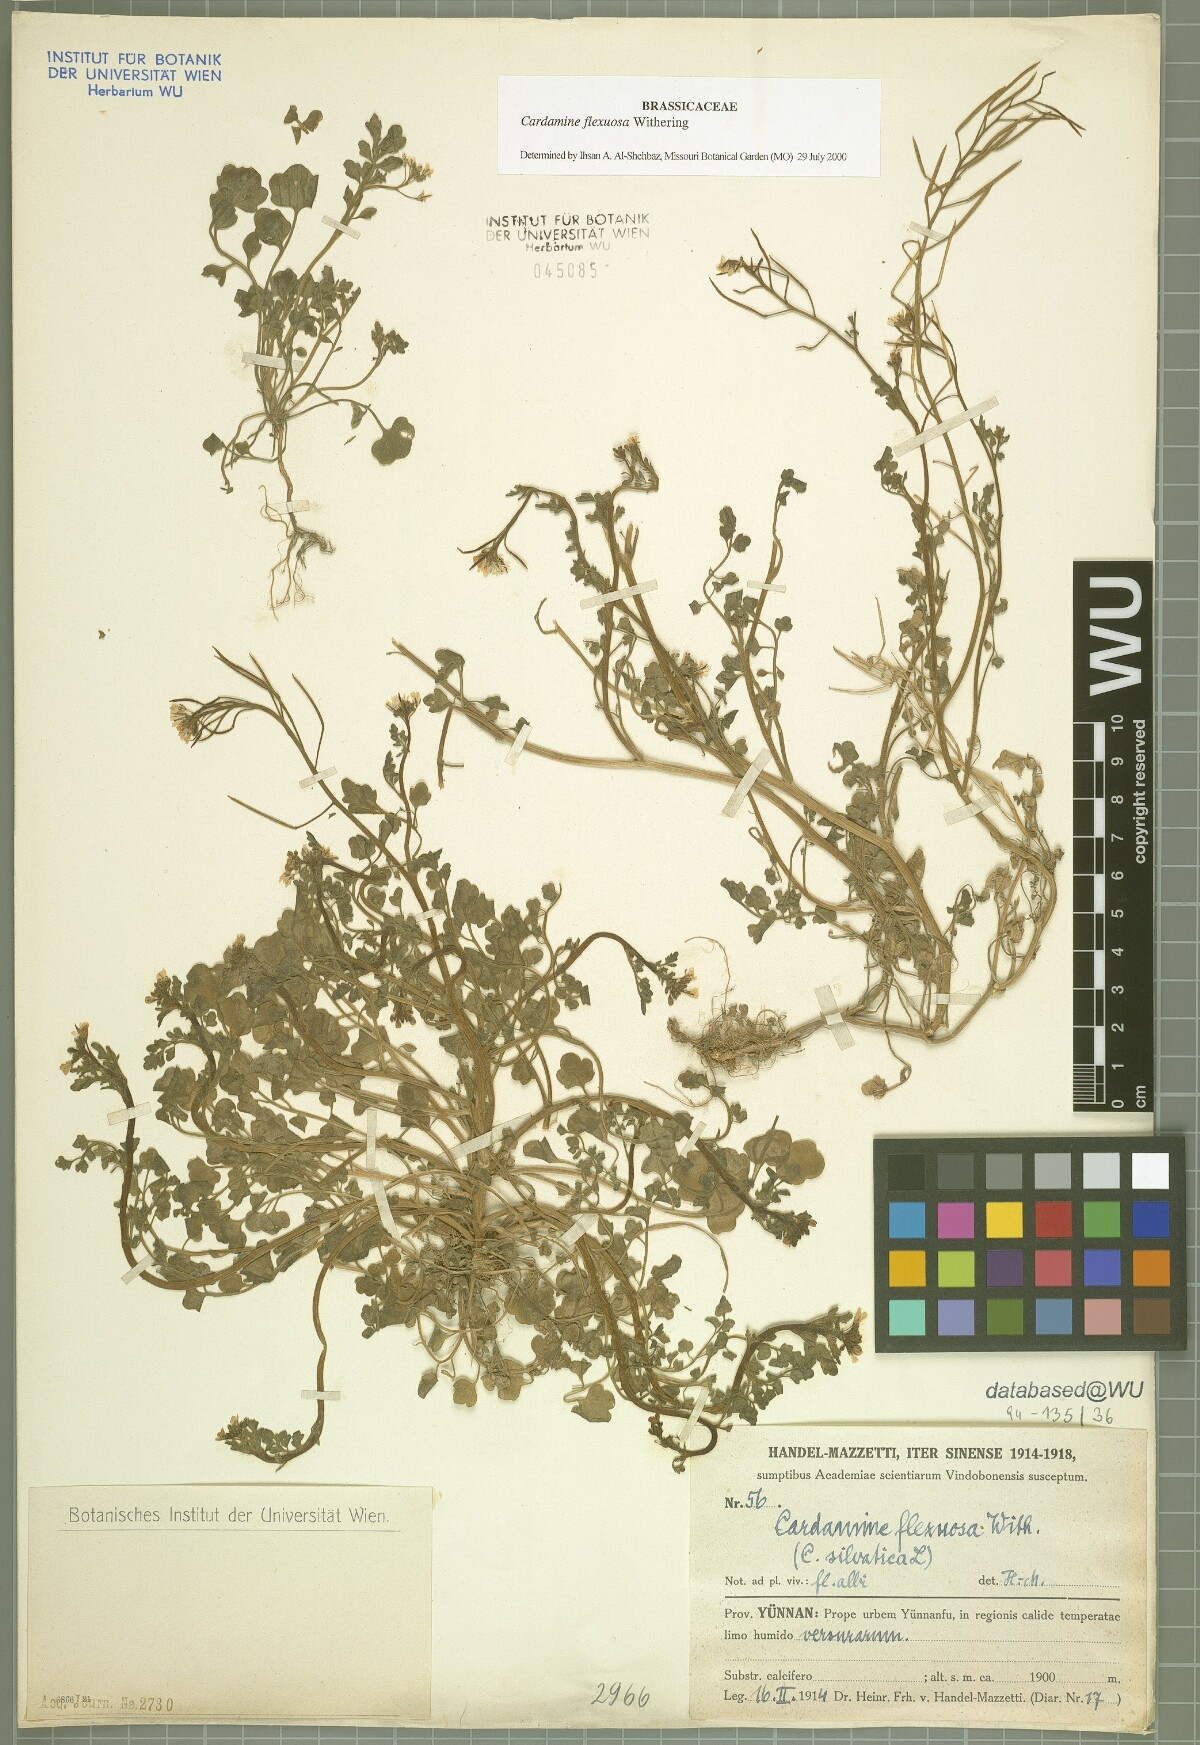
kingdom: Plantae
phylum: Tracheophyta
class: Magnoliopsida
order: Brassicales
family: Brassicaceae
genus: Cardamine
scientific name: Cardamine flexuosa
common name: Woodland bittercress
